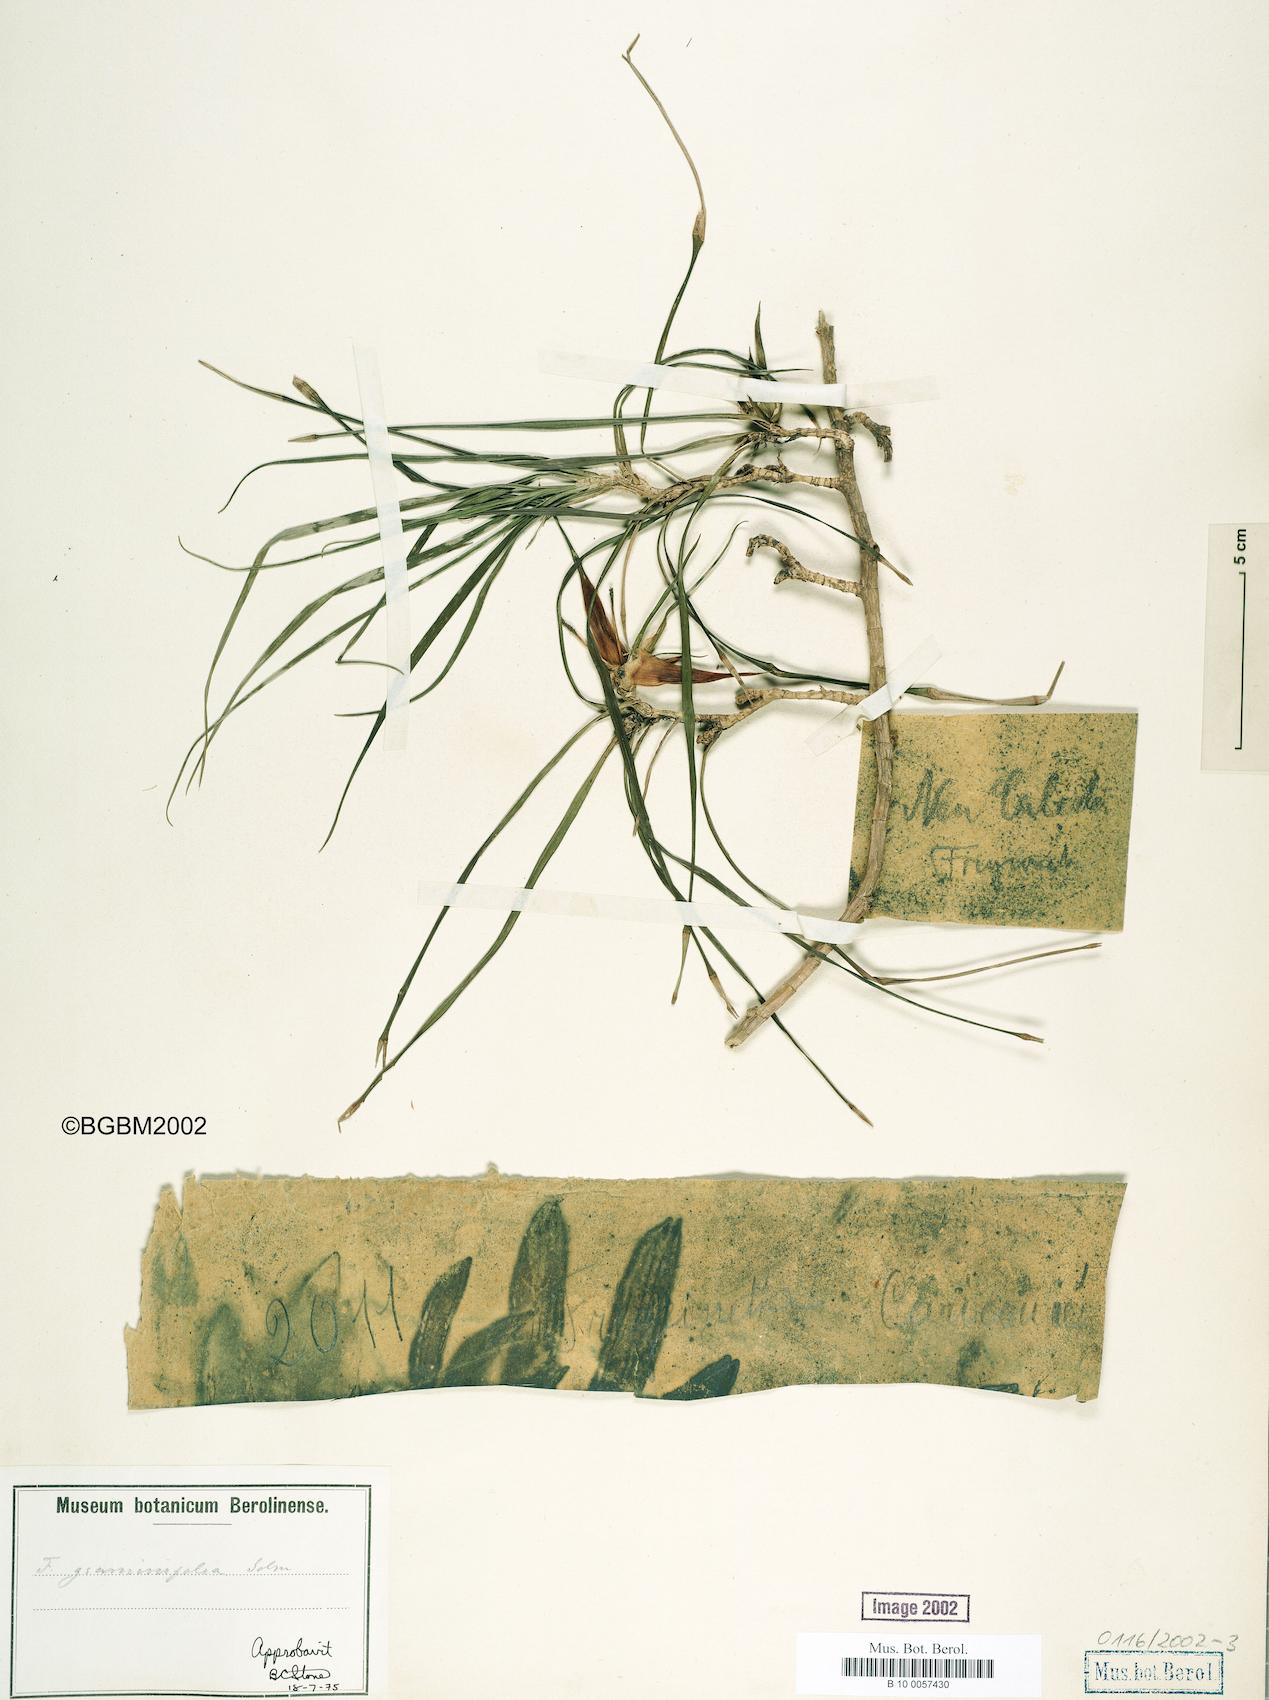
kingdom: Plantae
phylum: Tracheophyta
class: Liliopsida
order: Pandanales
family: Pandanaceae
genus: Freycinetia
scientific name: Freycinetia graminifolia
